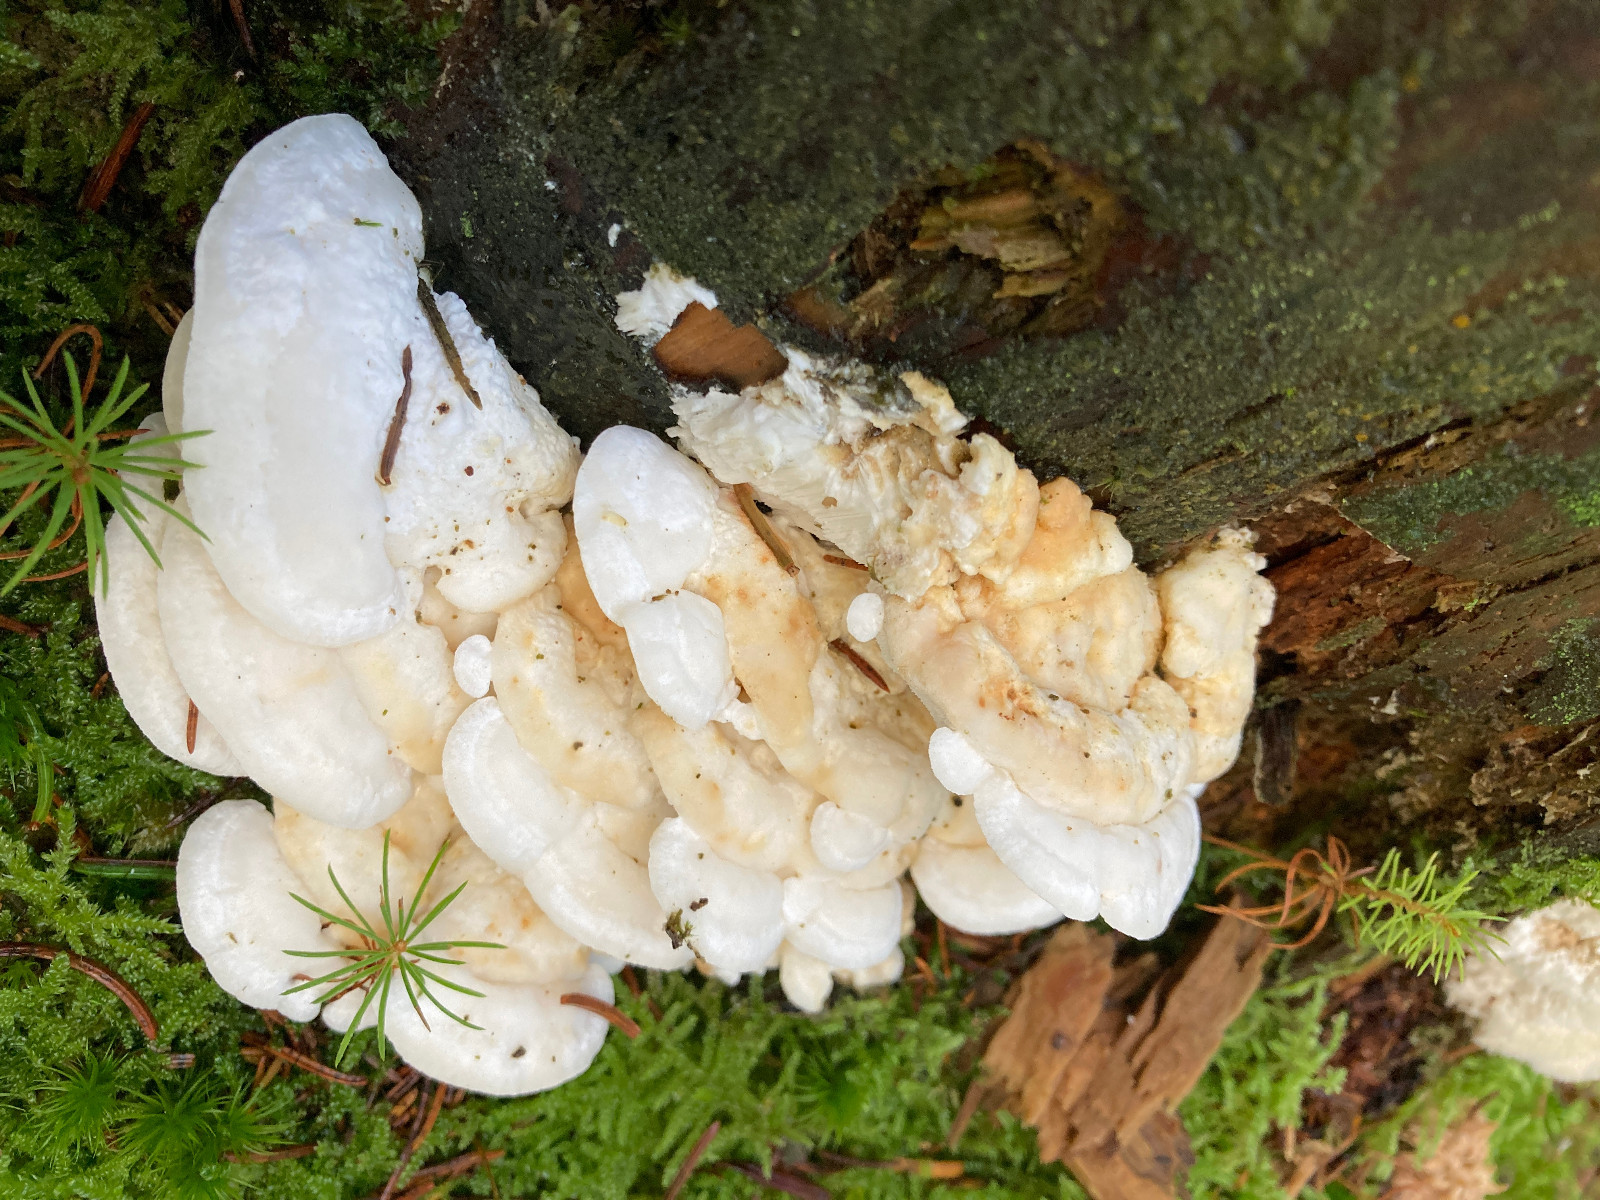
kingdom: Fungi
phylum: Basidiomycota
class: Agaricomycetes
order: Polyporales
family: Dacryobolaceae
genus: Postia
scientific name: Postia tephroleuca
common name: grålig kødporesvamp
